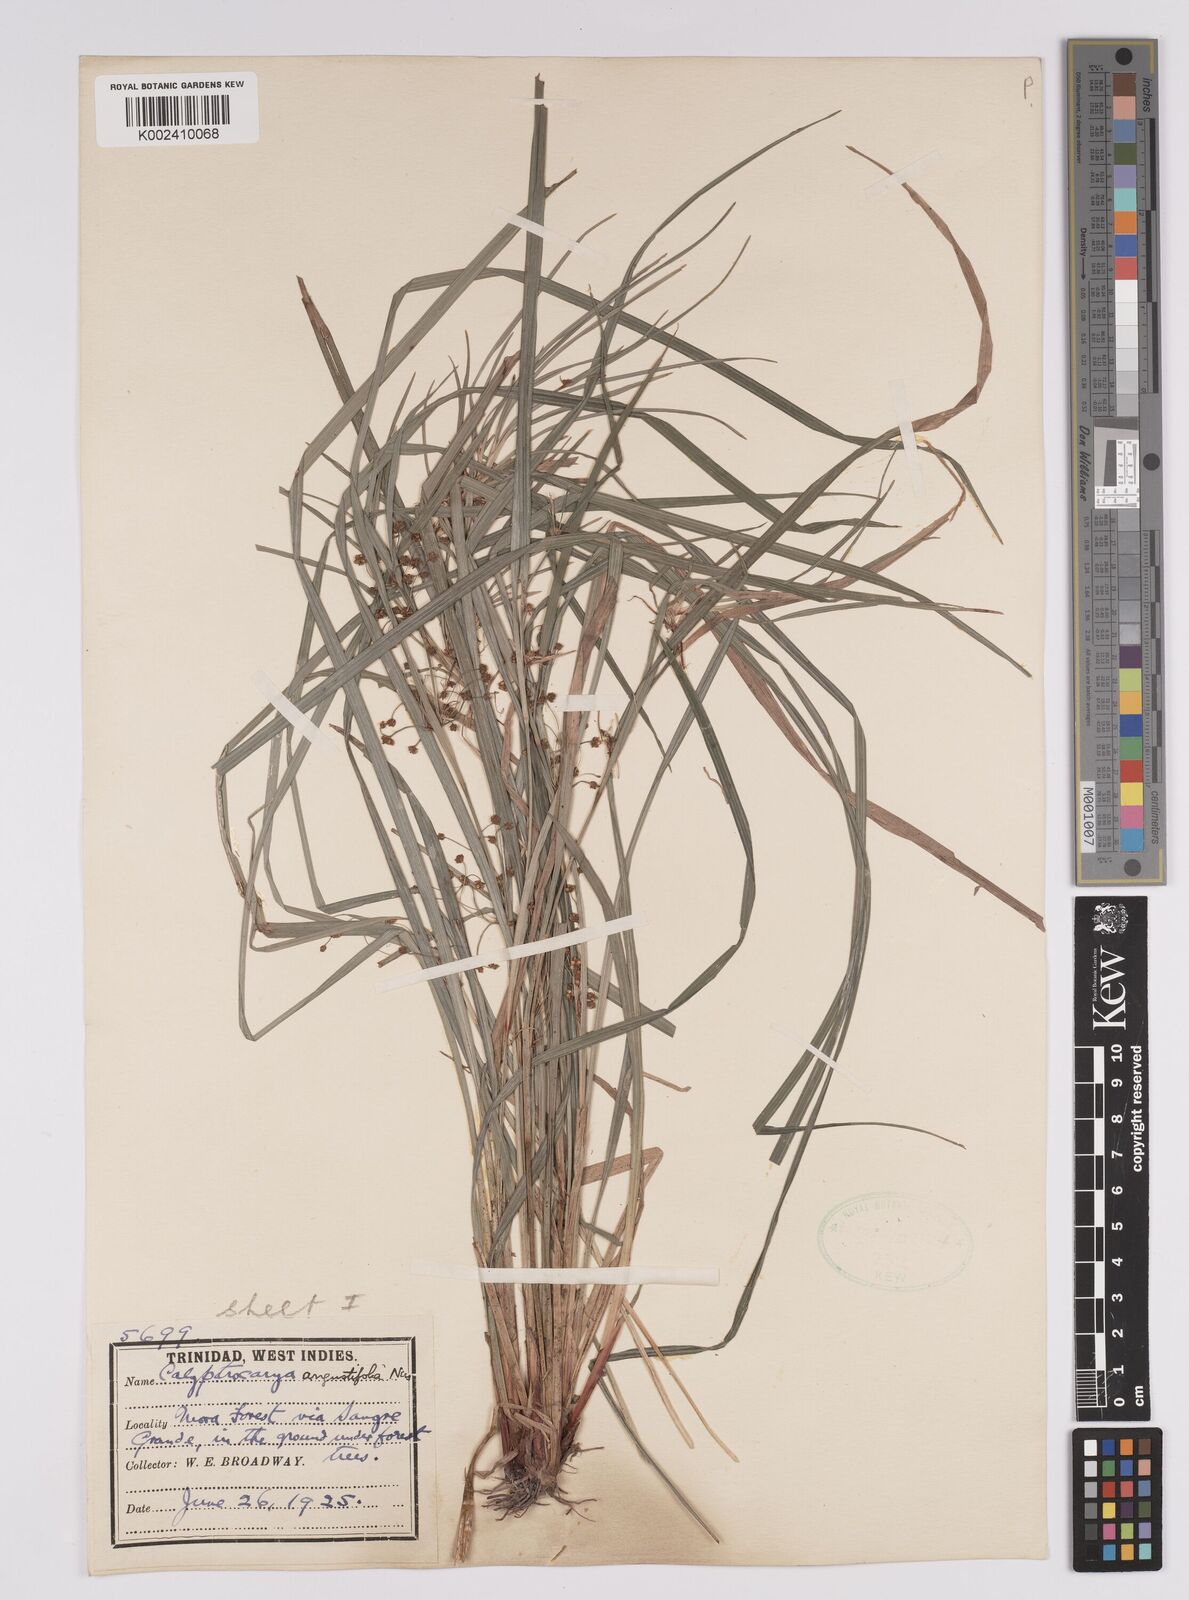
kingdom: Plantae
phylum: Tracheophyta
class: Liliopsida
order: Poales
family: Cyperaceae
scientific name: Cyperaceae
